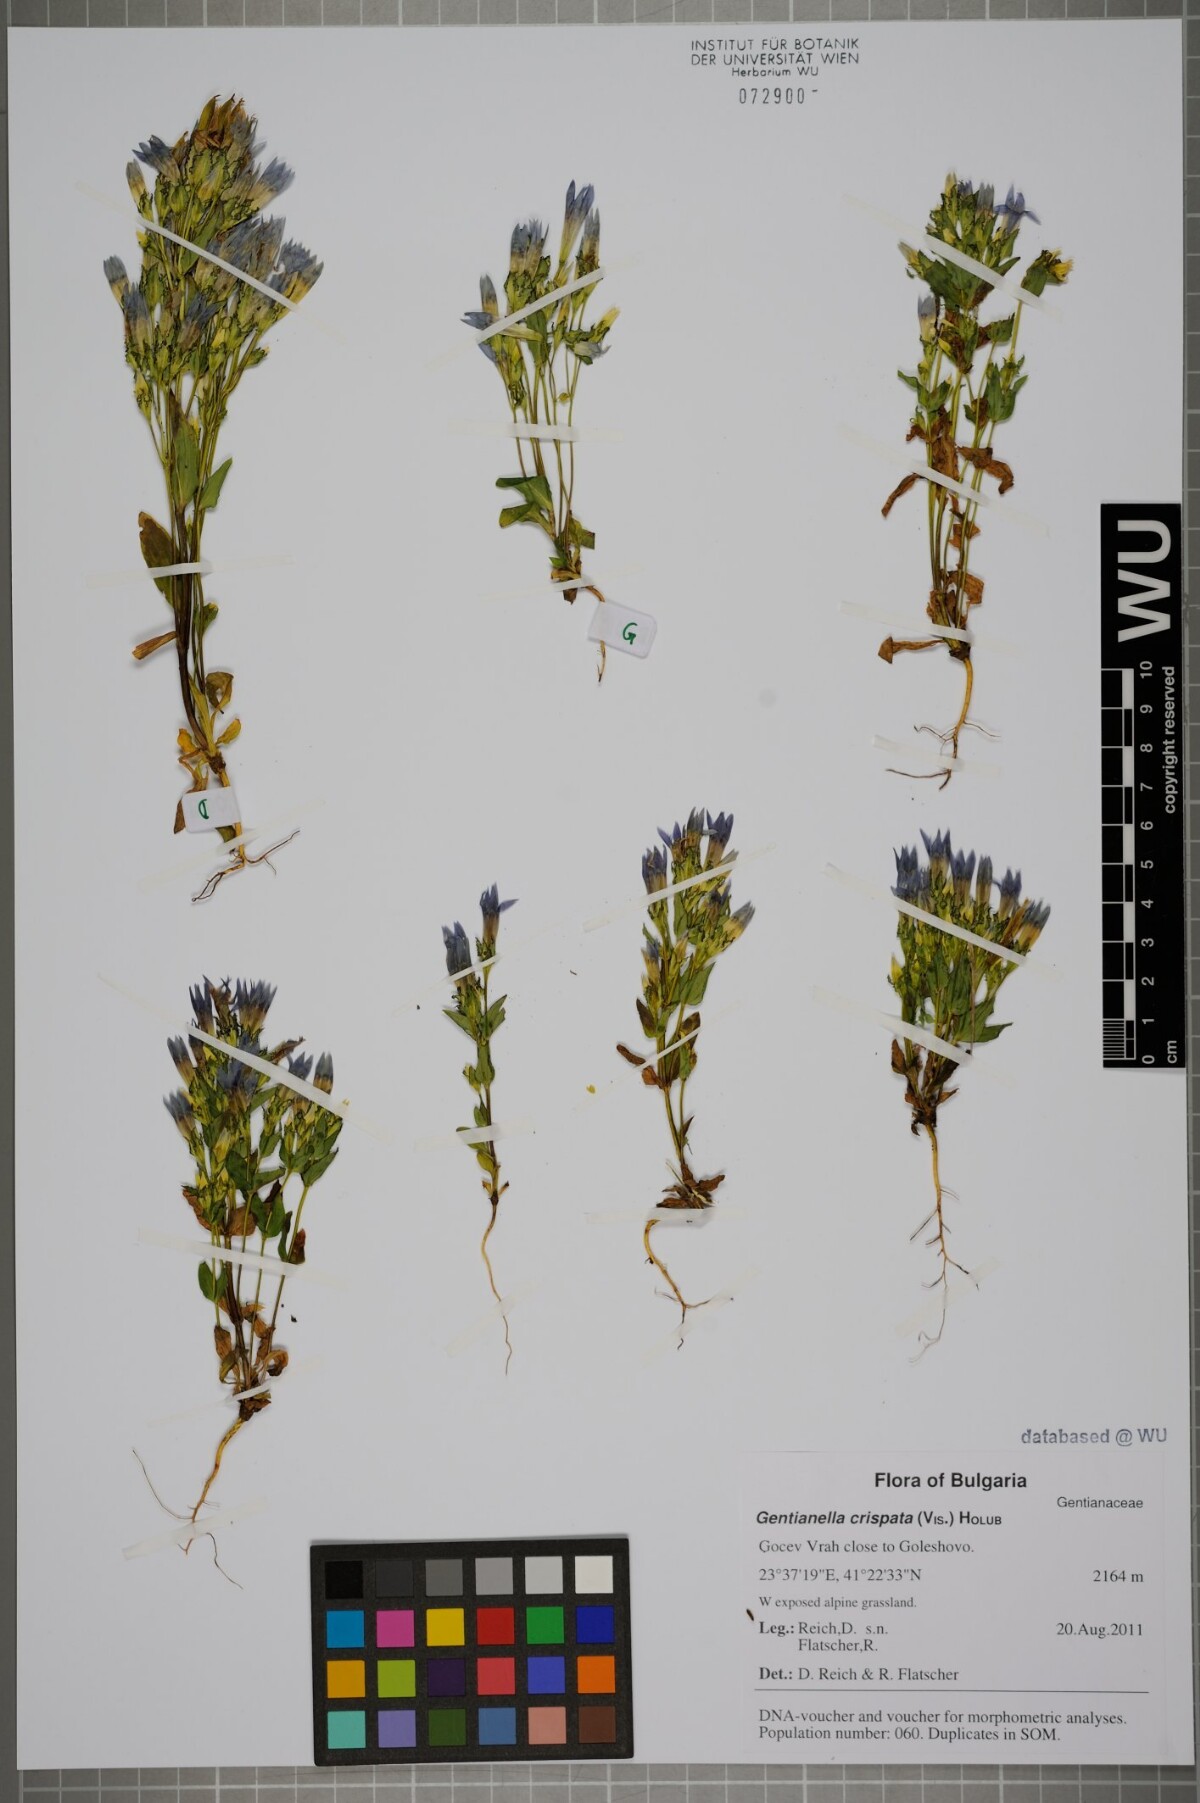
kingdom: Plantae
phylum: Tracheophyta
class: Magnoliopsida
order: Gentianales
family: Gentianaceae
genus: Gentianella
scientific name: Gentianella crispata
